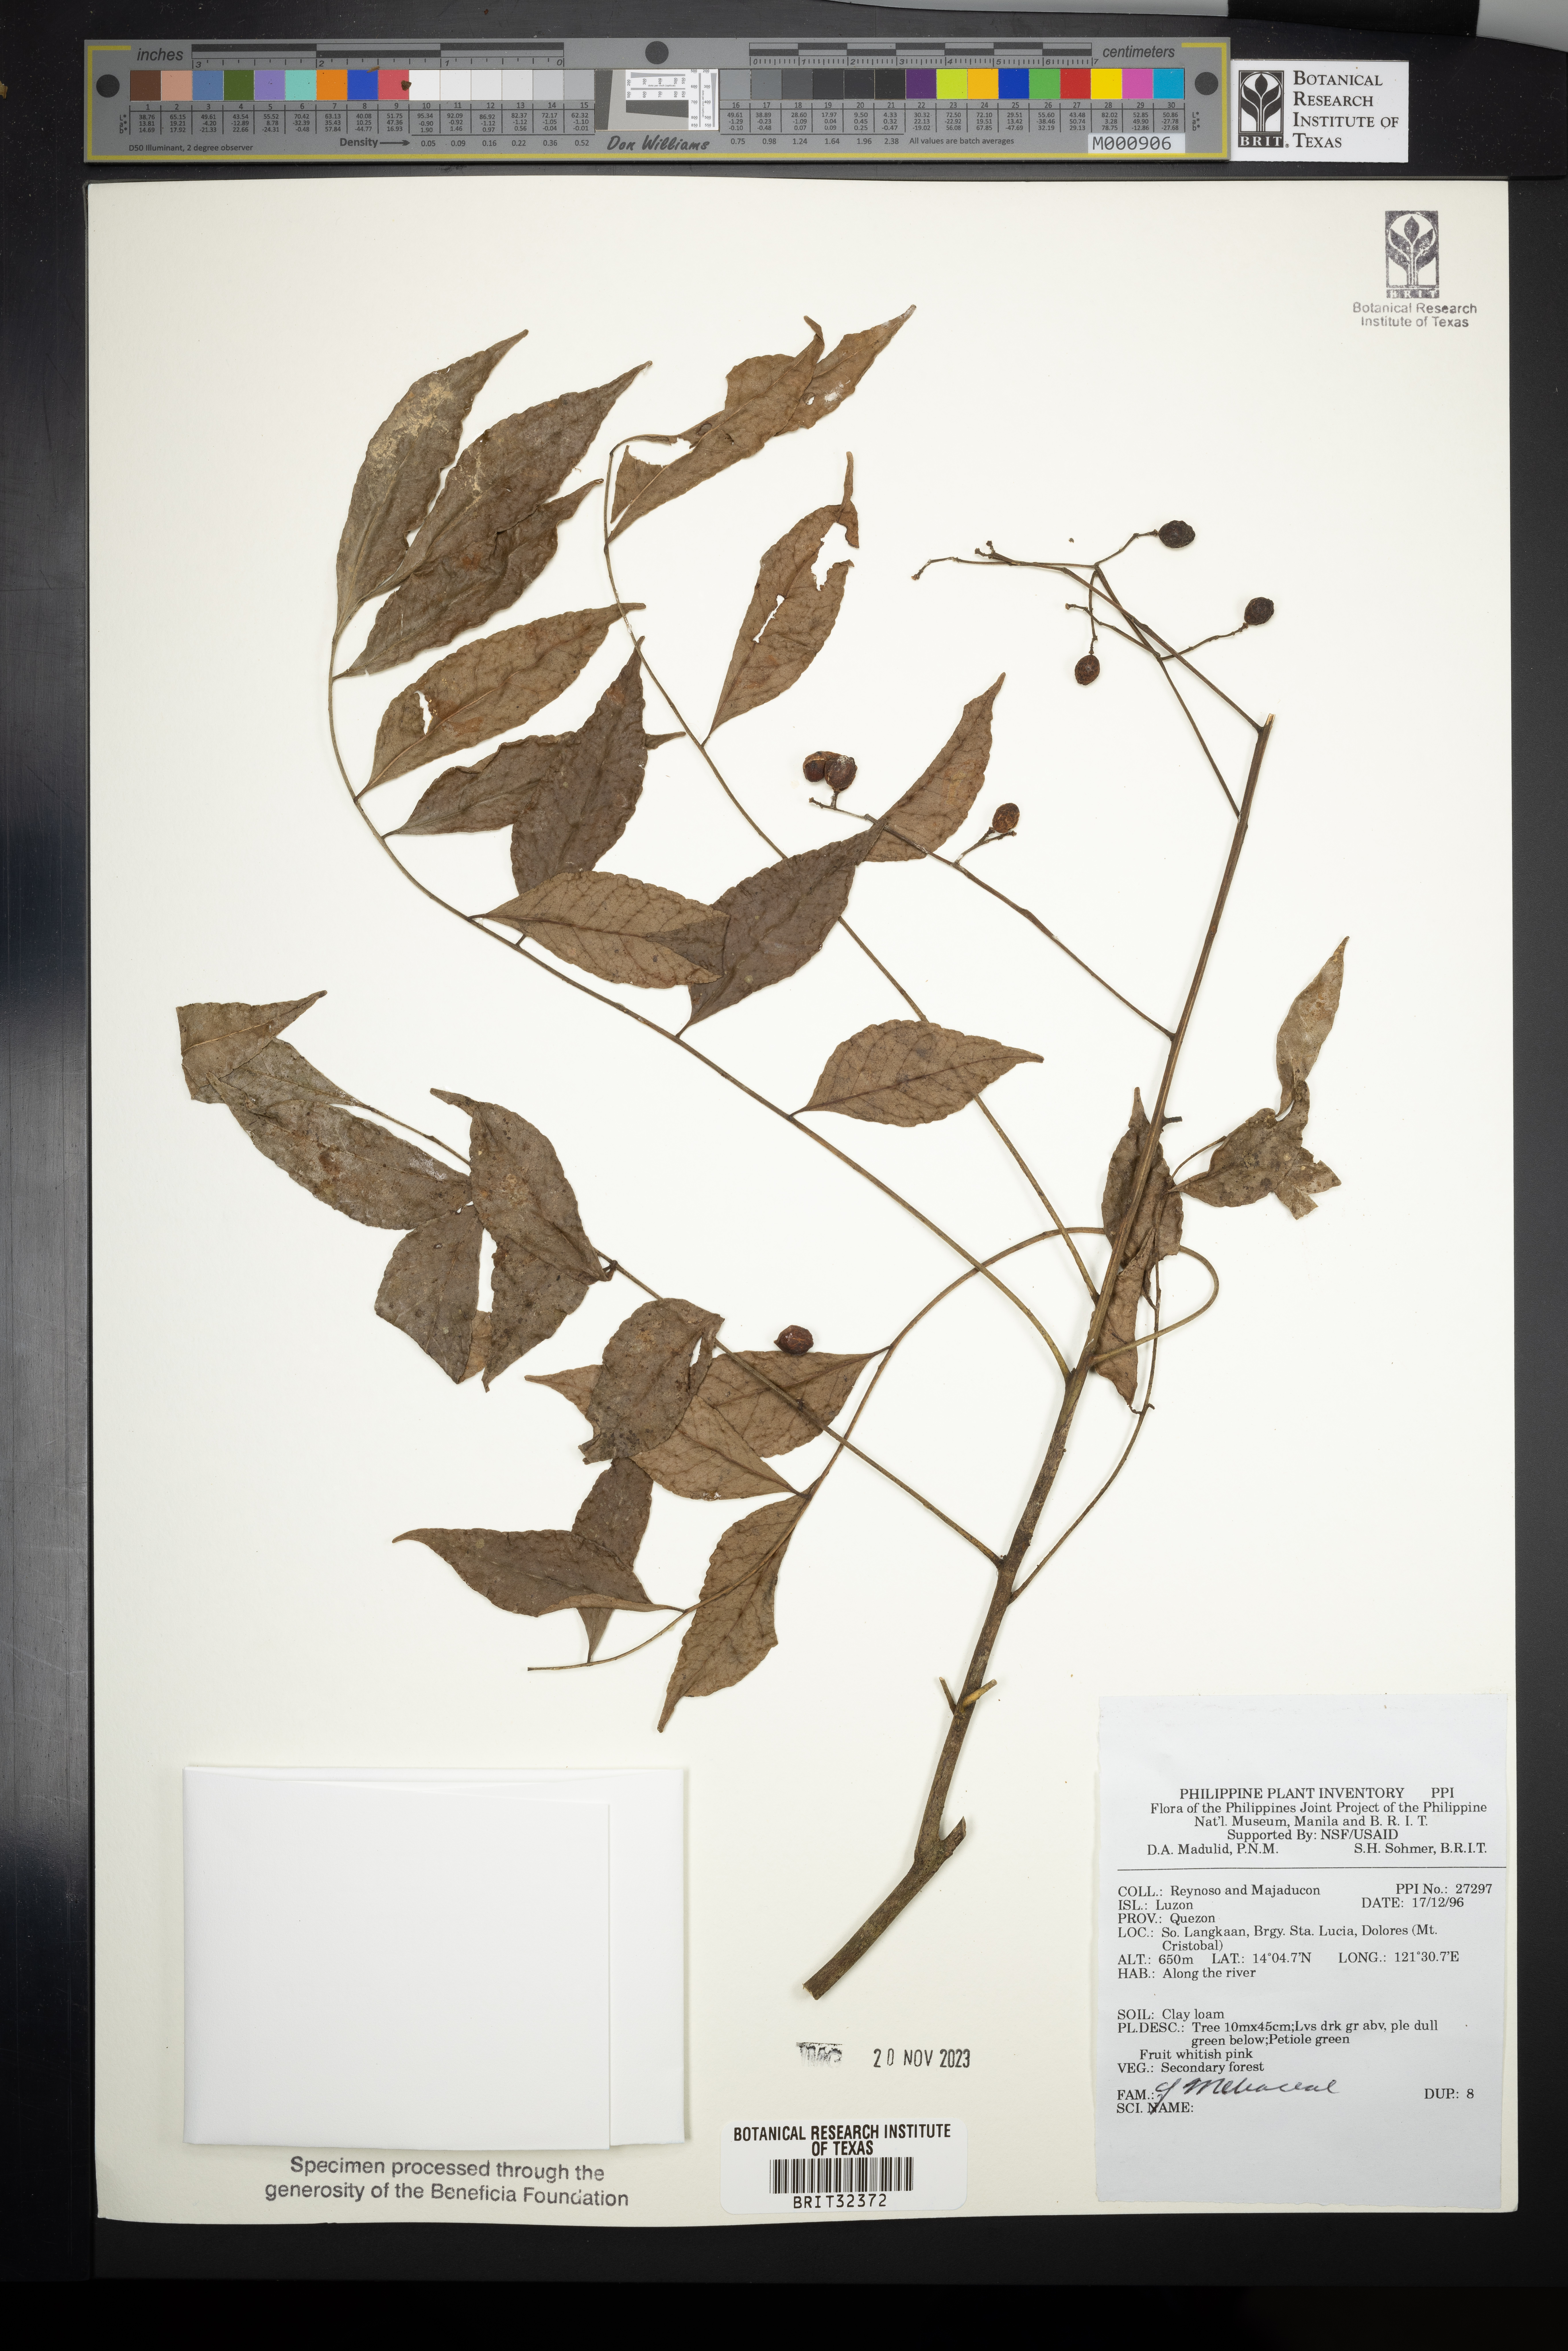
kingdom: Plantae
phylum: Tracheophyta
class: Magnoliopsida
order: Sapindales
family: Meliaceae
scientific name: Meliaceae
